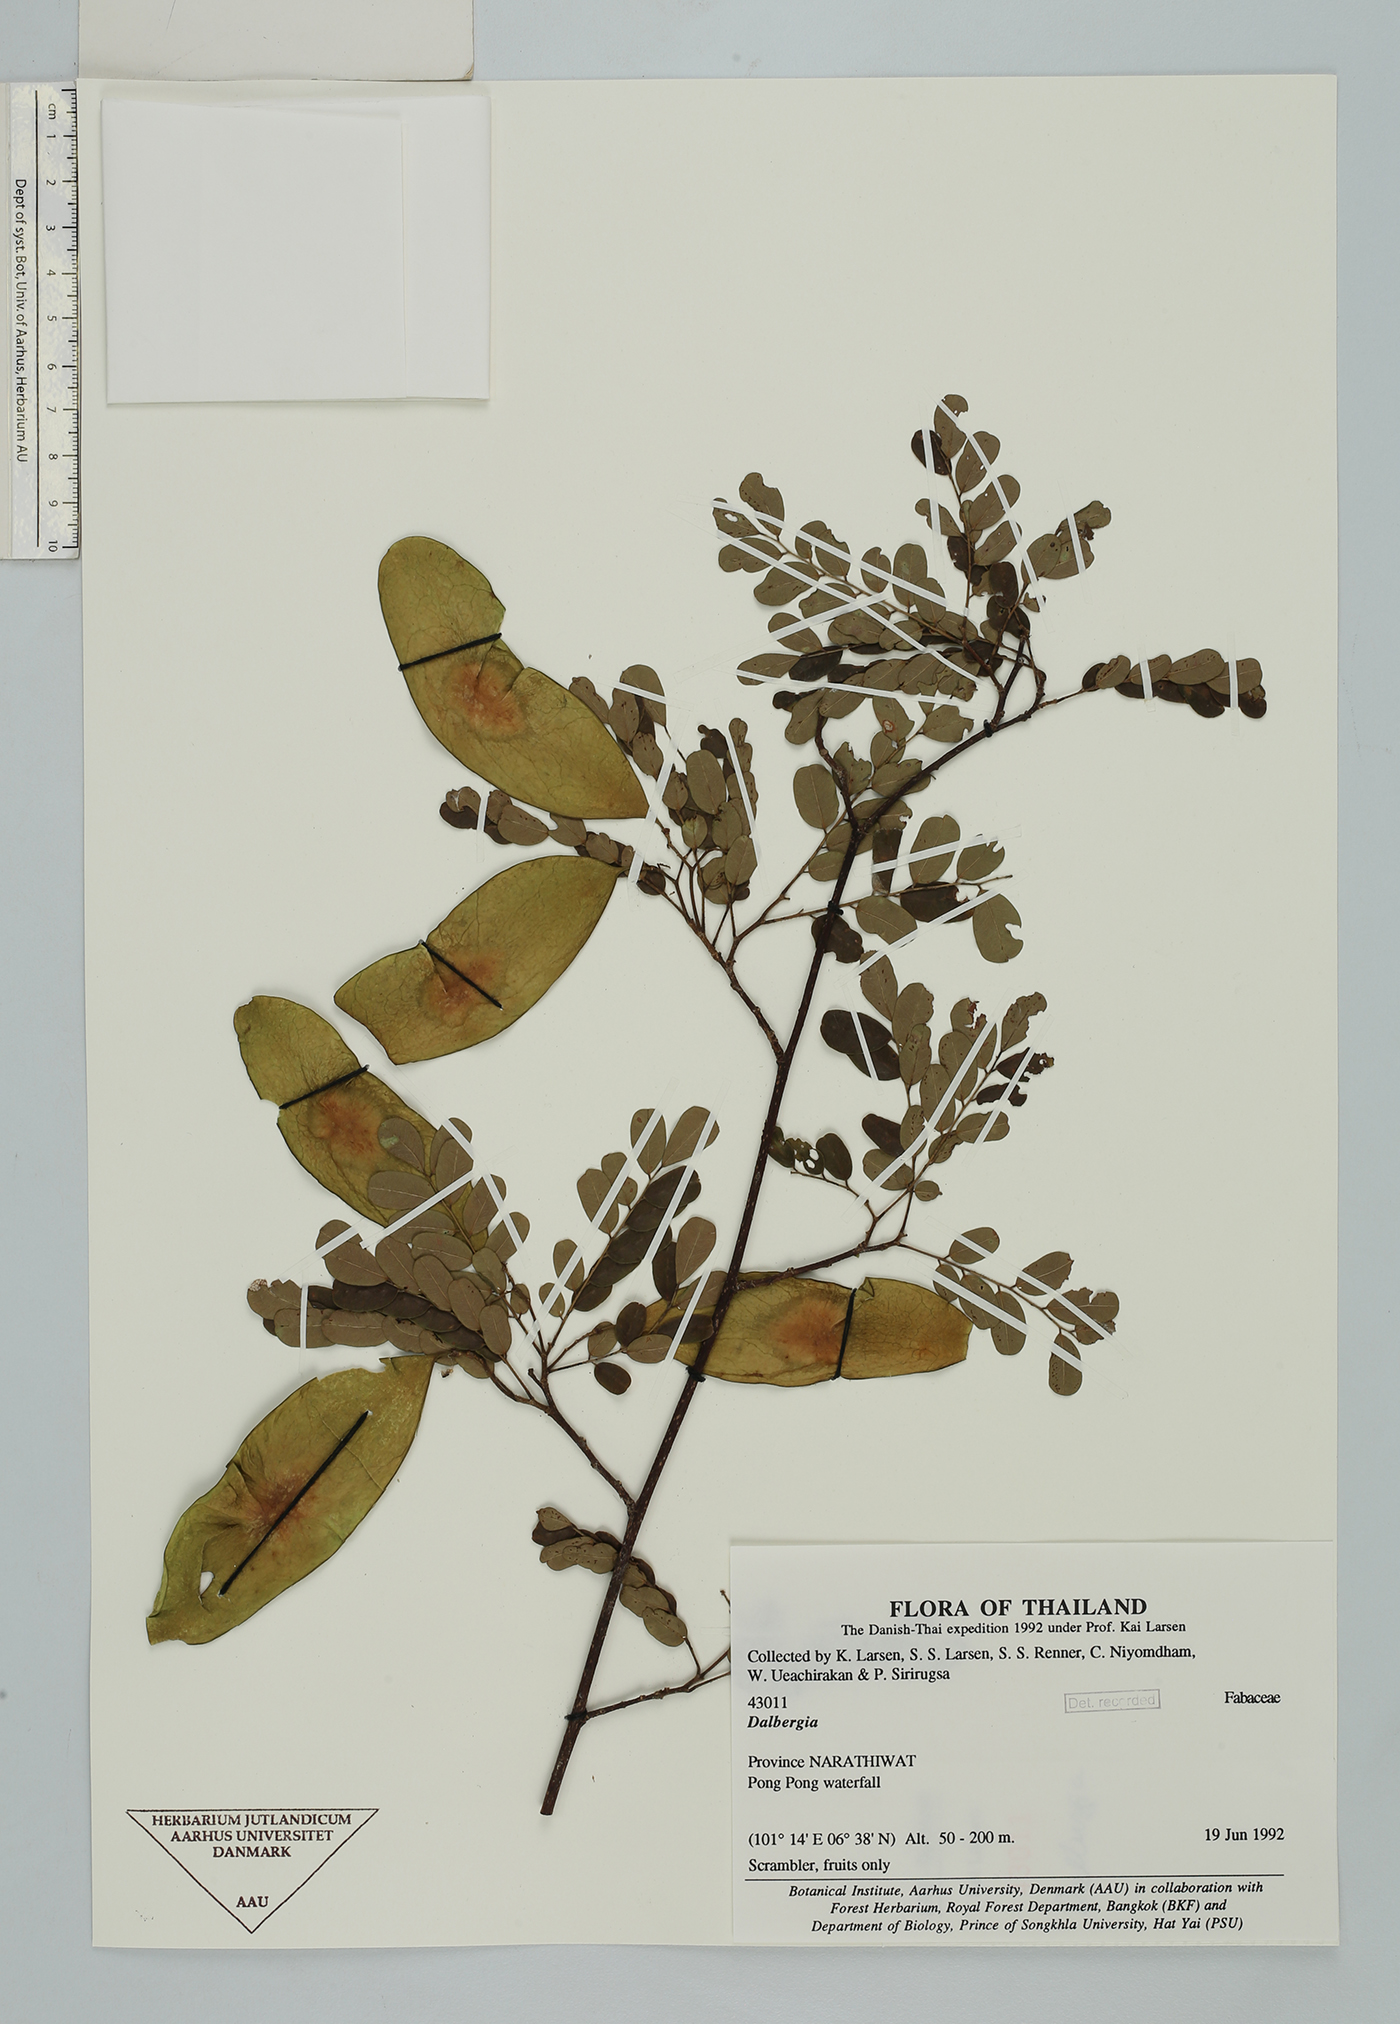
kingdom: Plantae
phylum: Tracheophyta
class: Magnoliopsida
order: Fabales
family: Fabaceae
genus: Dalbergia
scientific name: Dalbergia
